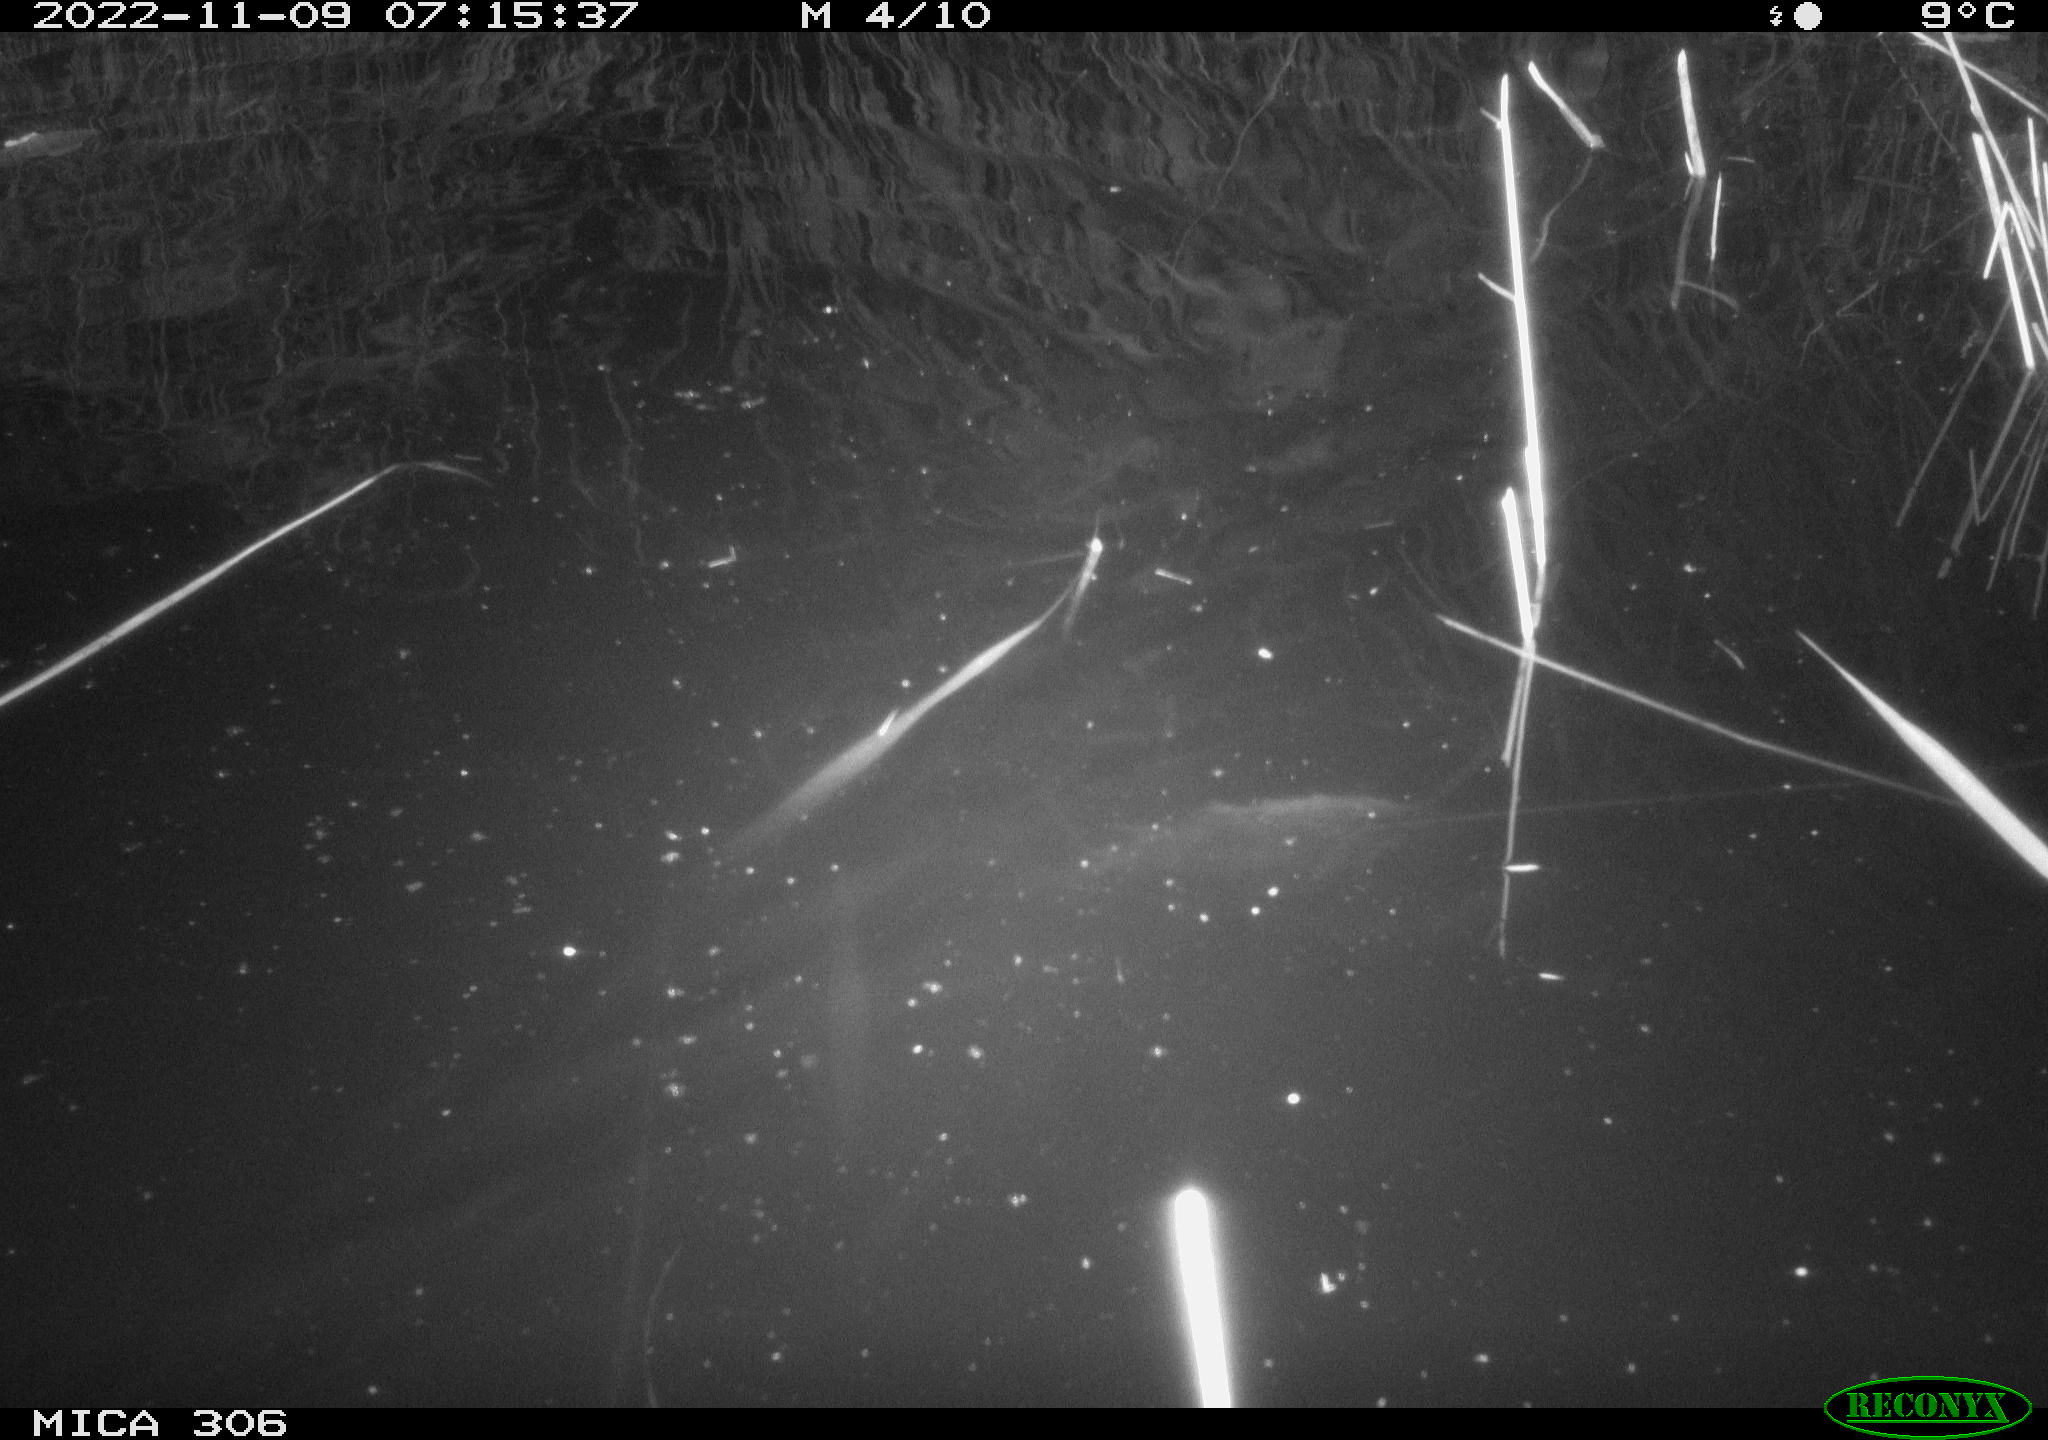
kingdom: Animalia
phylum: Chordata
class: Mammalia
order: Rodentia
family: Muridae
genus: Rattus
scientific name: Rattus norvegicus
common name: Brown rat
